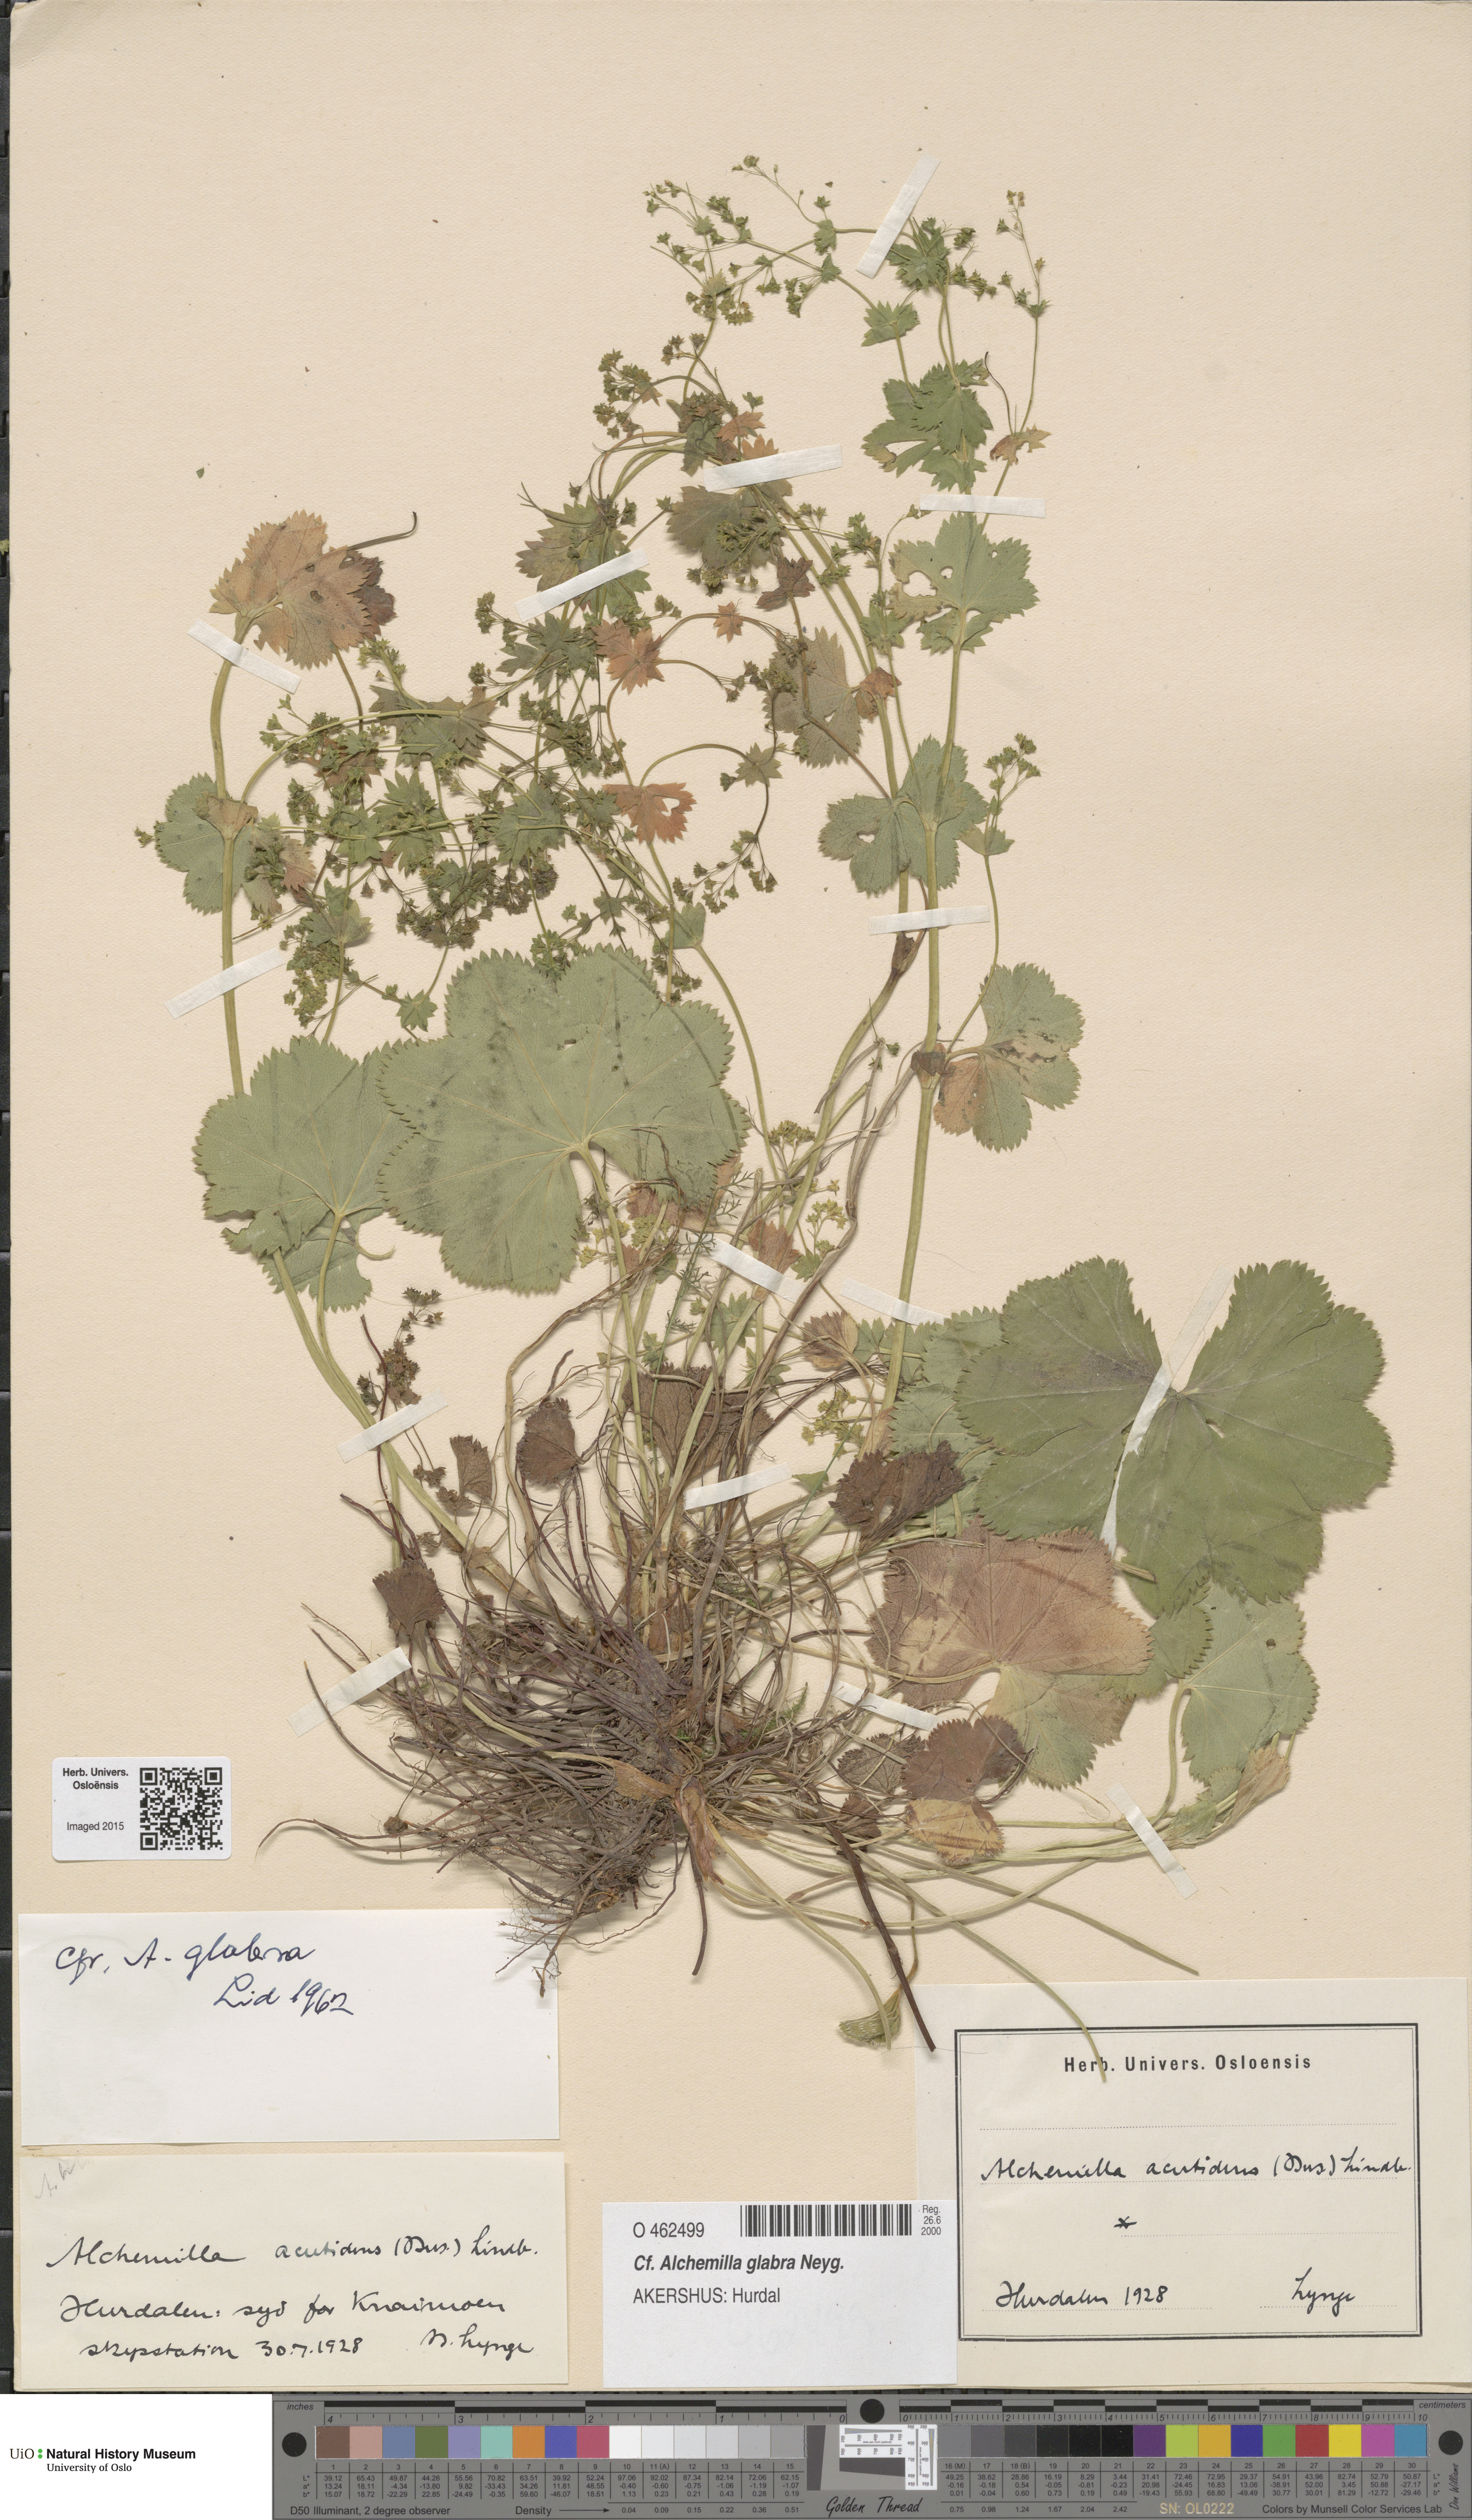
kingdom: Plantae
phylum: Tracheophyta
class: Magnoliopsida
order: Rosales
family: Rosaceae
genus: Alchemilla
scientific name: Alchemilla glabra
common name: Smooth lady's-mantle
